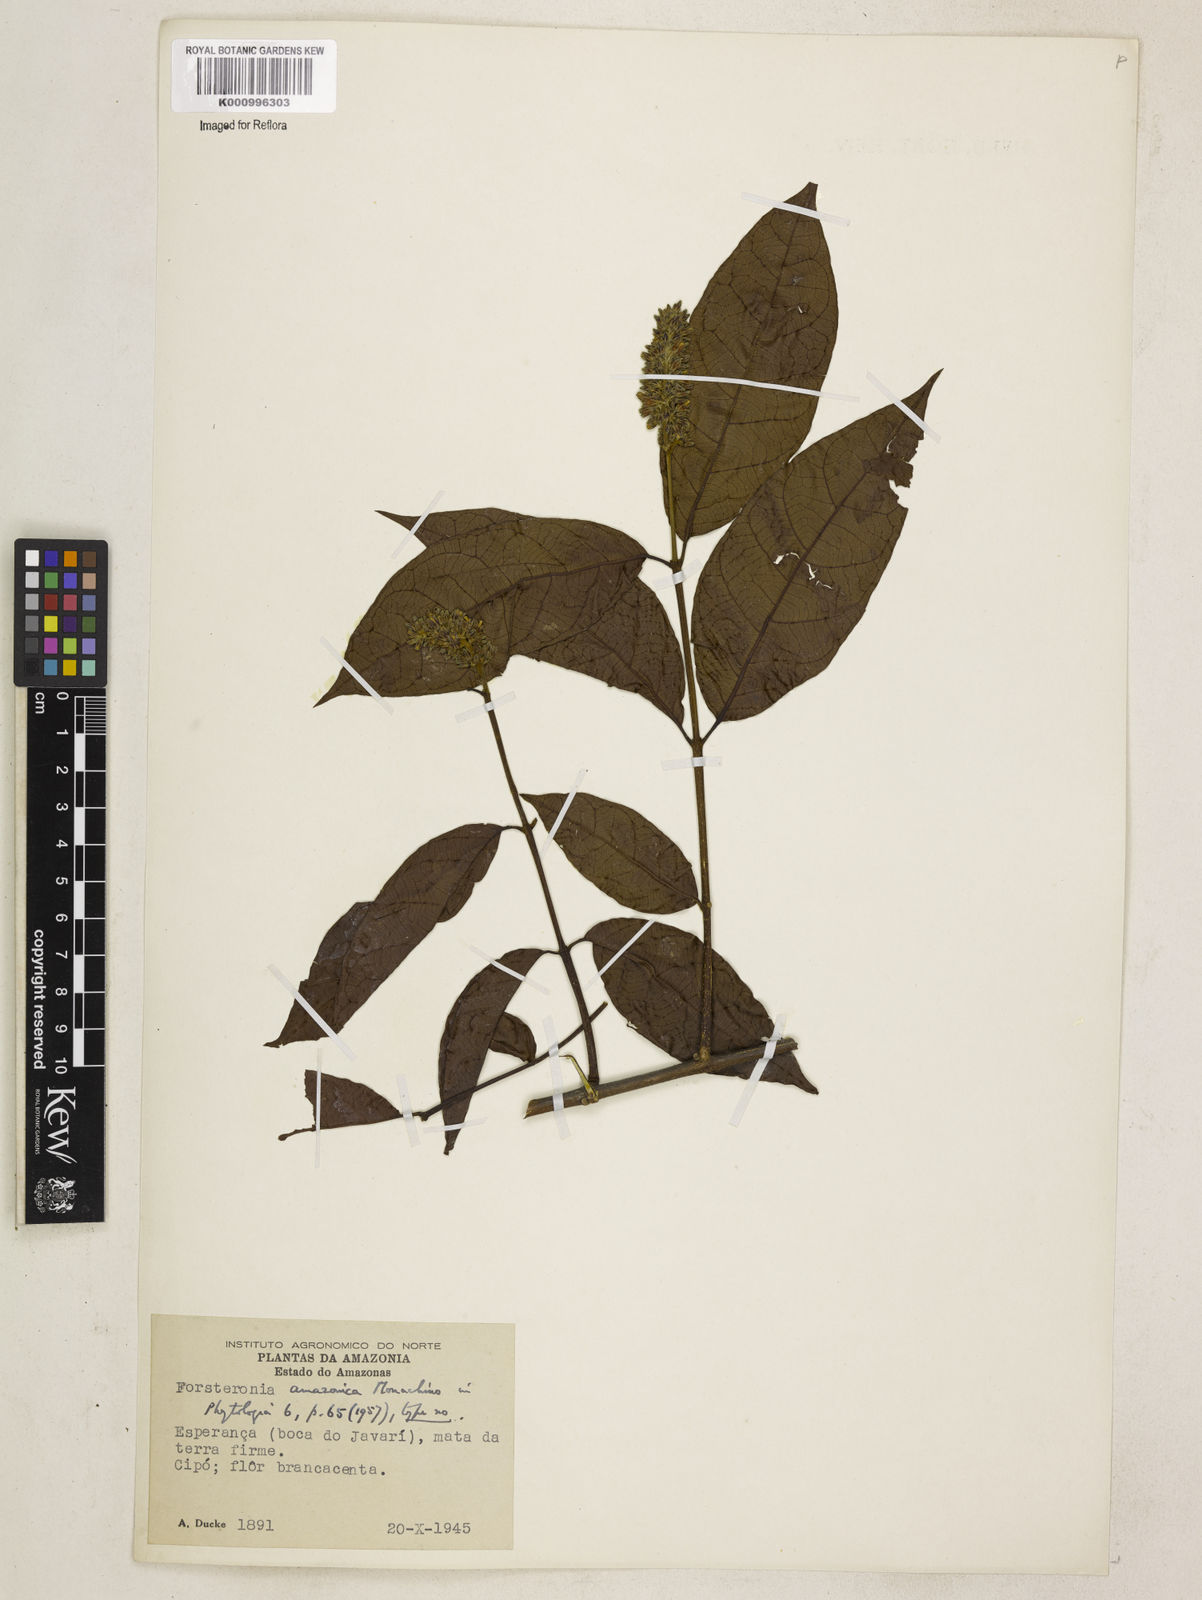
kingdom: Plantae
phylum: Tracheophyta
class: Magnoliopsida
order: Gentianales
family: Apocynaceae
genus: Forsteronia
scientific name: Forsteronia amazonica
